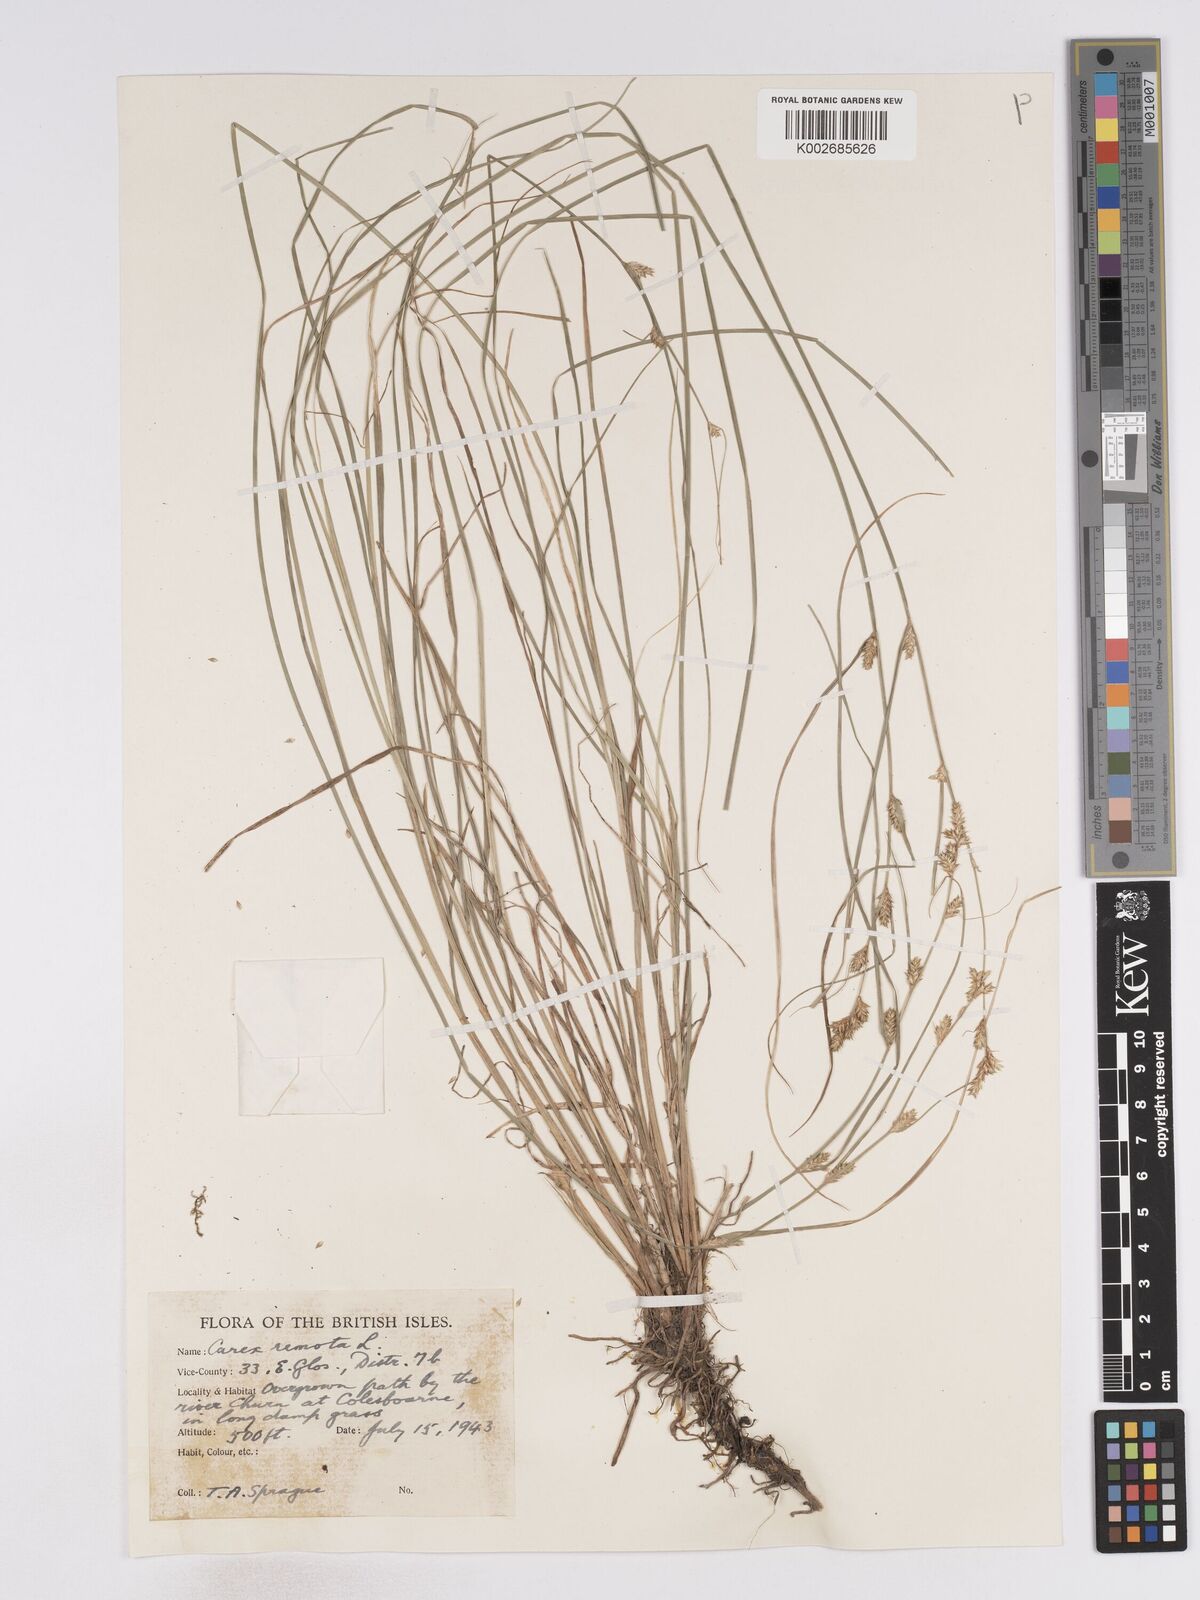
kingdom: Plantae
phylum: Tracheophyta
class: Liliopsida
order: Poales
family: Cyperaceae
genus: Carex
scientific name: Carex remota
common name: Remote sedge
